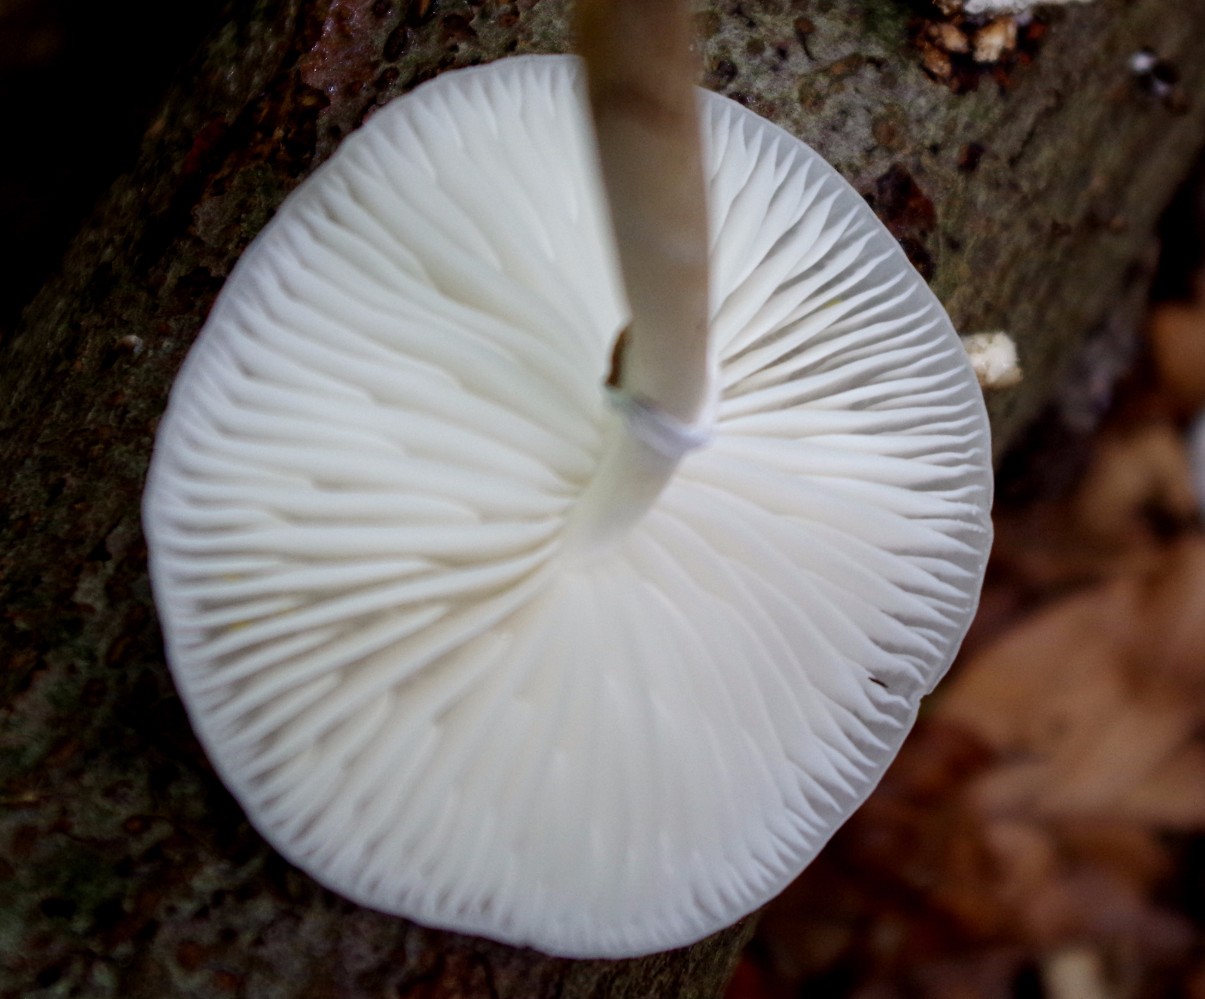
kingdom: Fungi
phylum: Basidiomycota
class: Agaricomycetes
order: Agaricales
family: Physalacriaceae
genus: Mucidula
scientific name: Mucidula mucida
